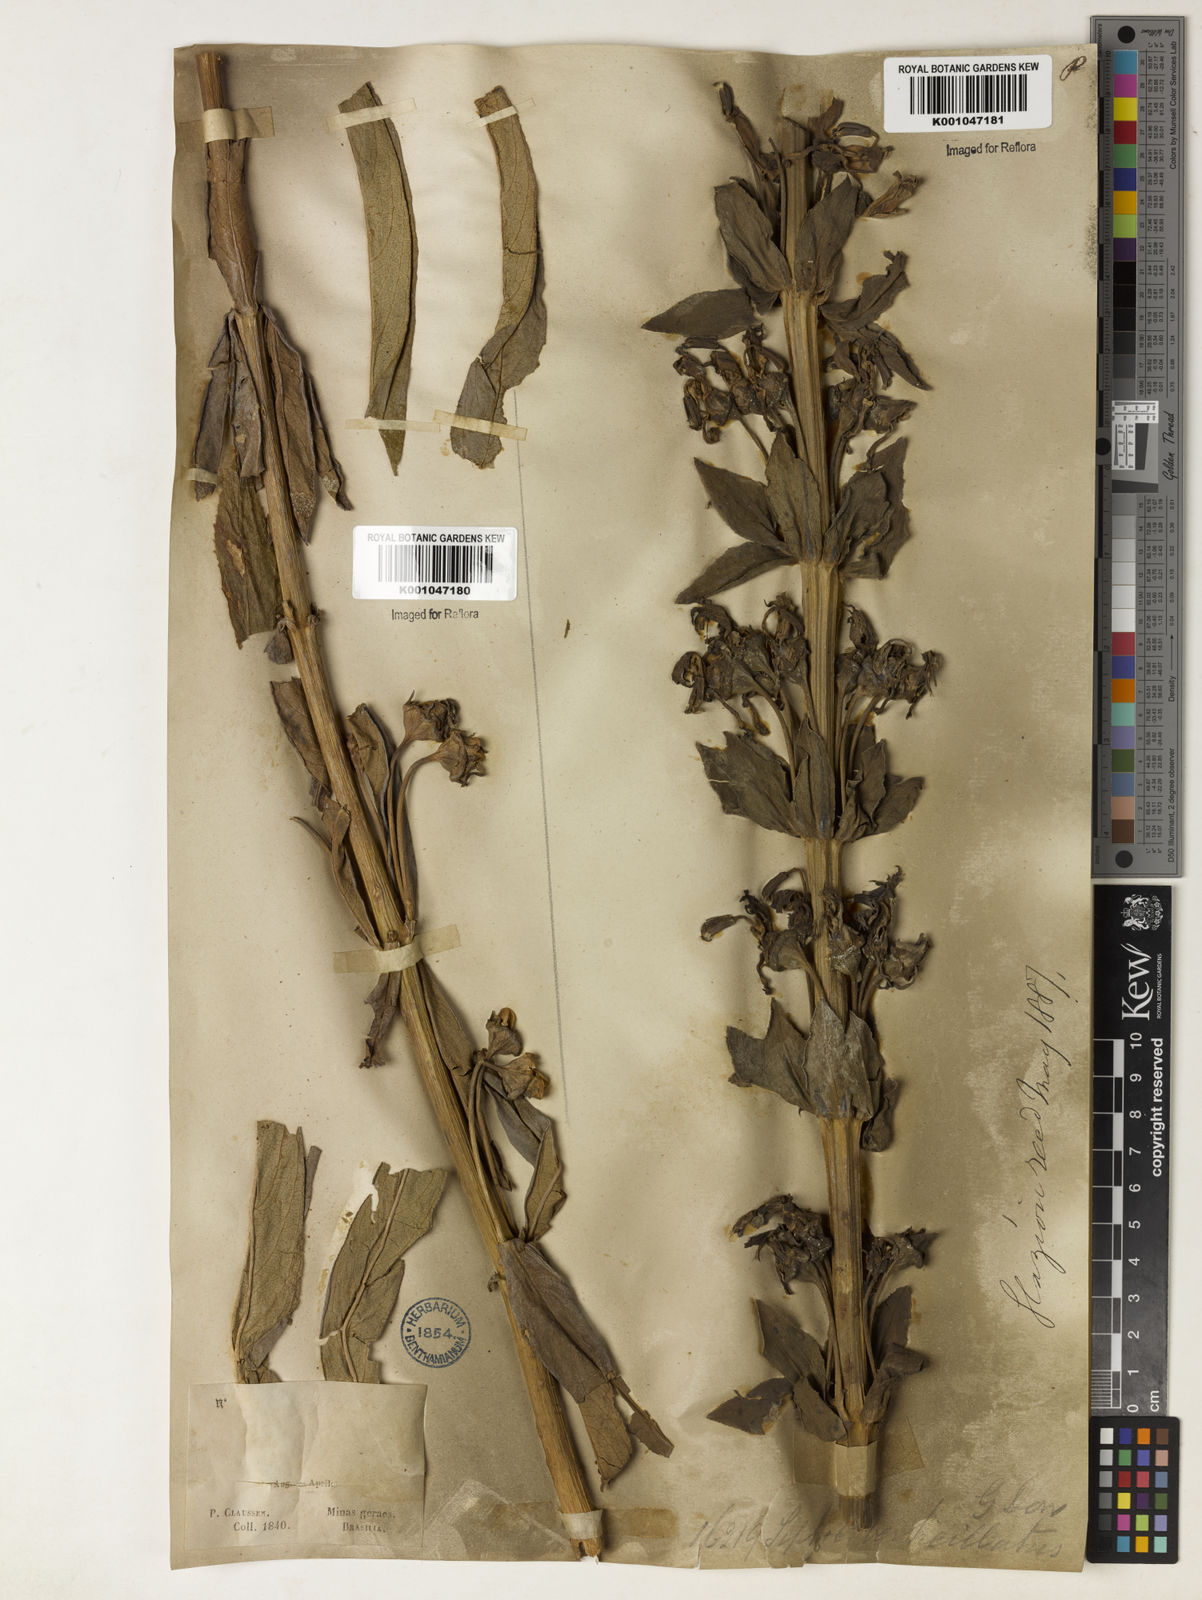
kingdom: Plantae
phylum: Tracheophyta
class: Magnoliopsida
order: Asterales
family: Campanulaceae
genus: Siphocampylus
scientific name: Siphocampylus verticillatus
